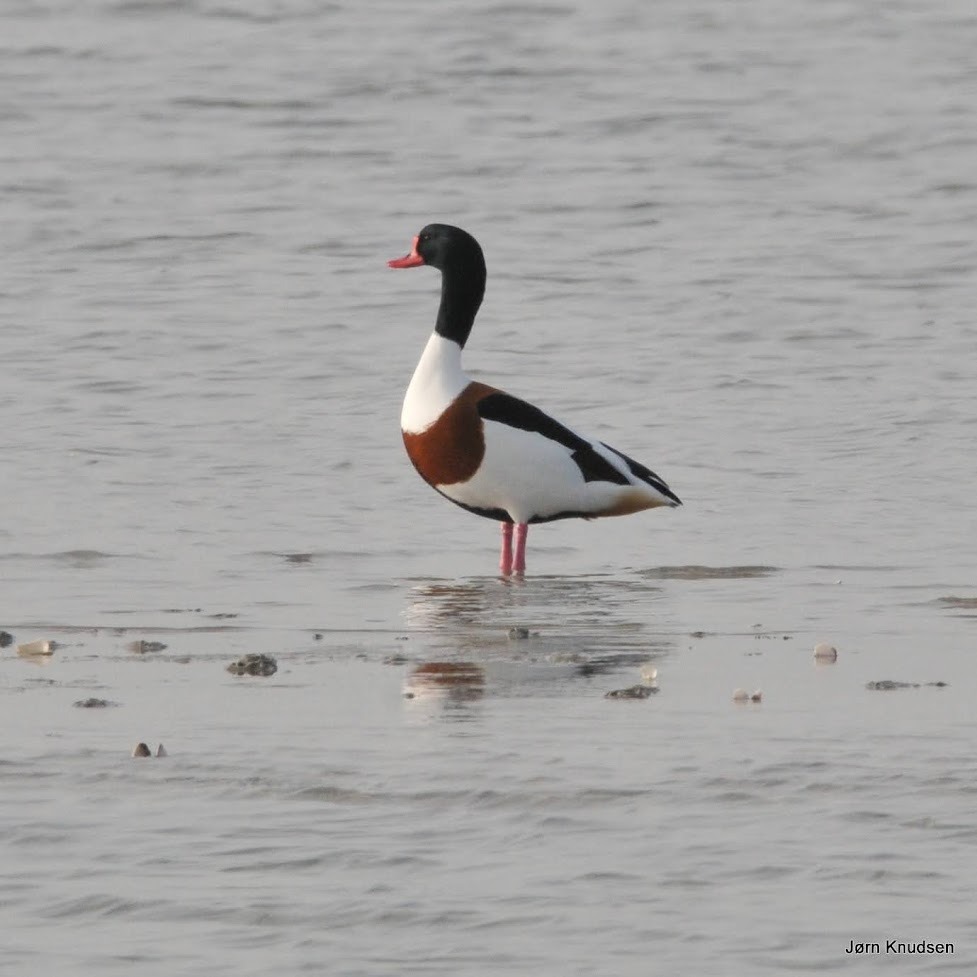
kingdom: Animalia
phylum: Chordata
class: Aves
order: Anseriformes
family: Anatidae
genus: Tadorna
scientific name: Tadorna tadorna
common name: Gravand
